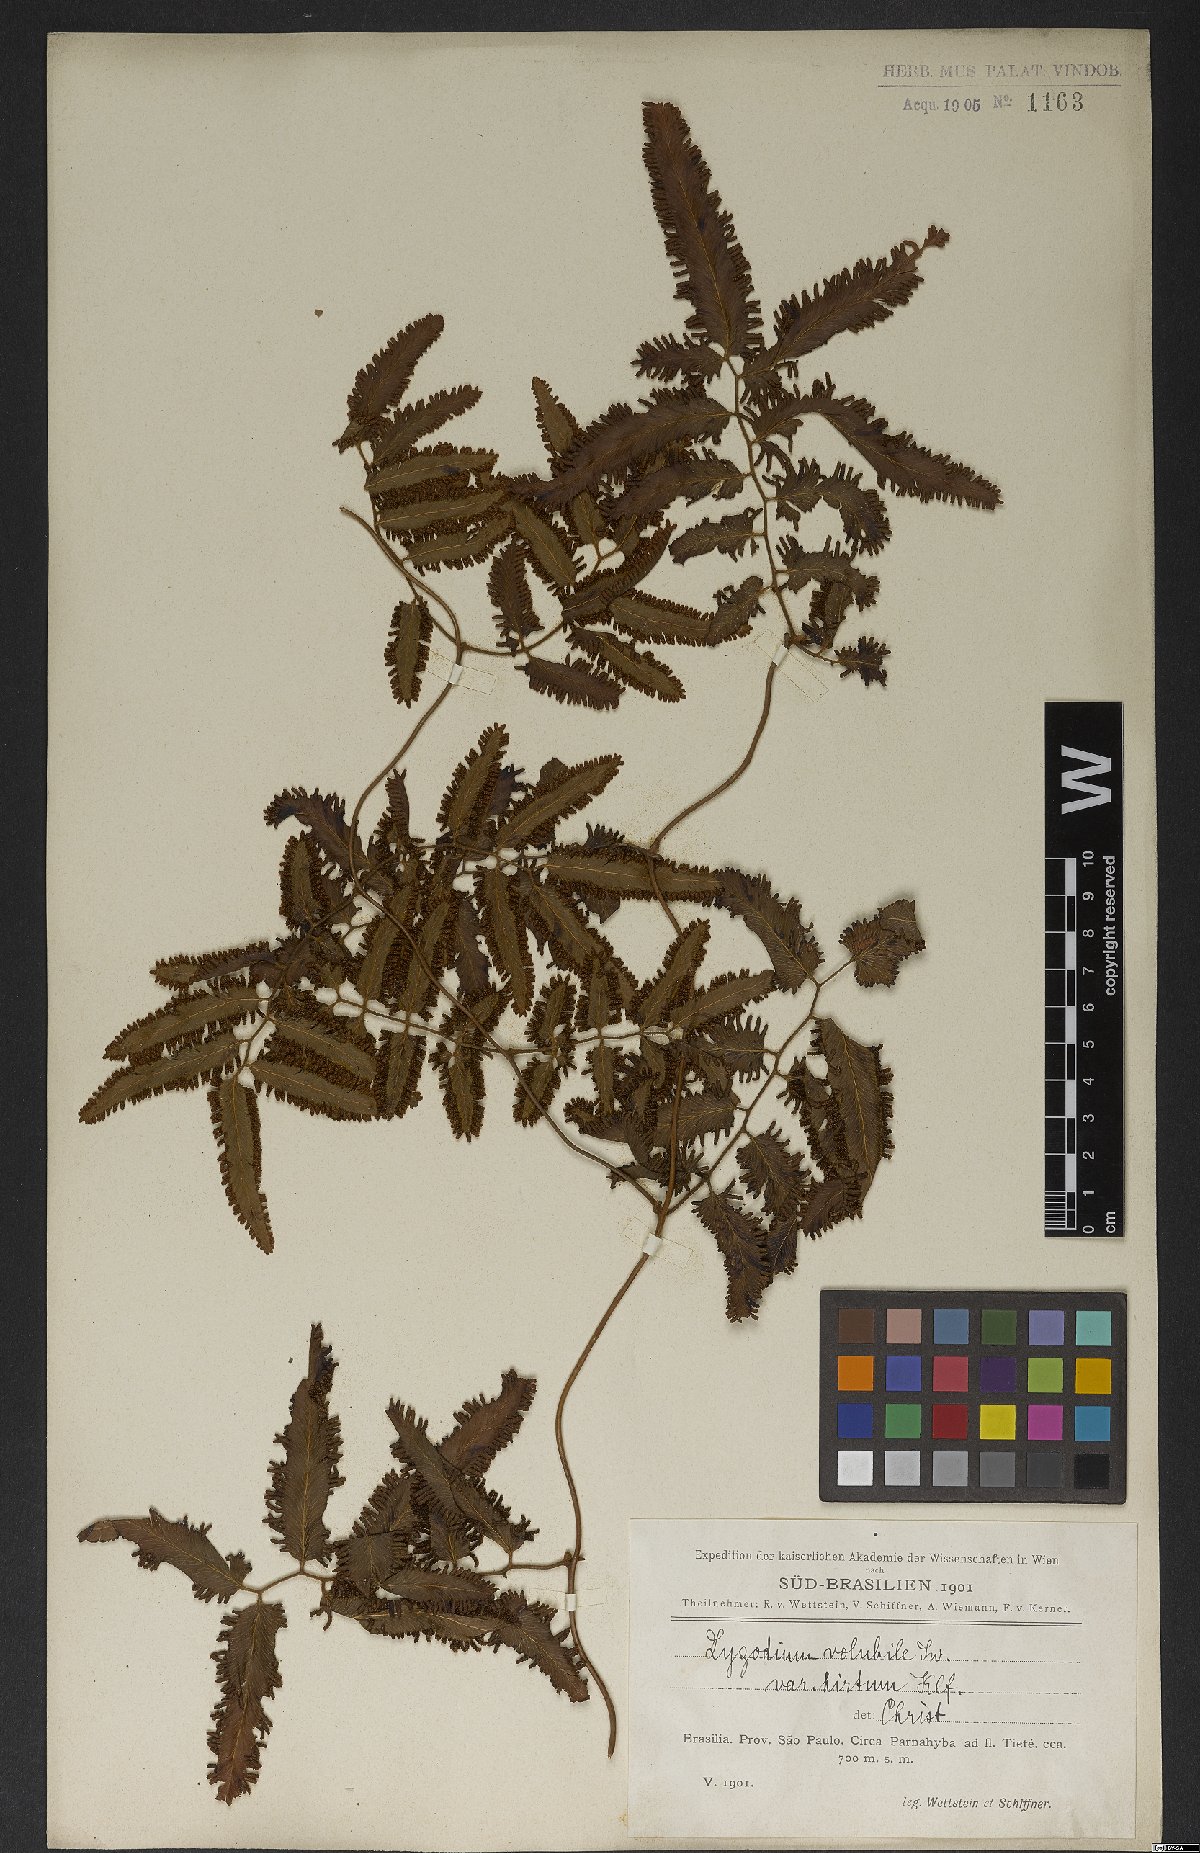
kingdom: Plantae
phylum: Tracheophyta
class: Polypodiopsida
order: Schizaeales
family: Lygodiaceae
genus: Lygodium
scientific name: Lygodium volubile
